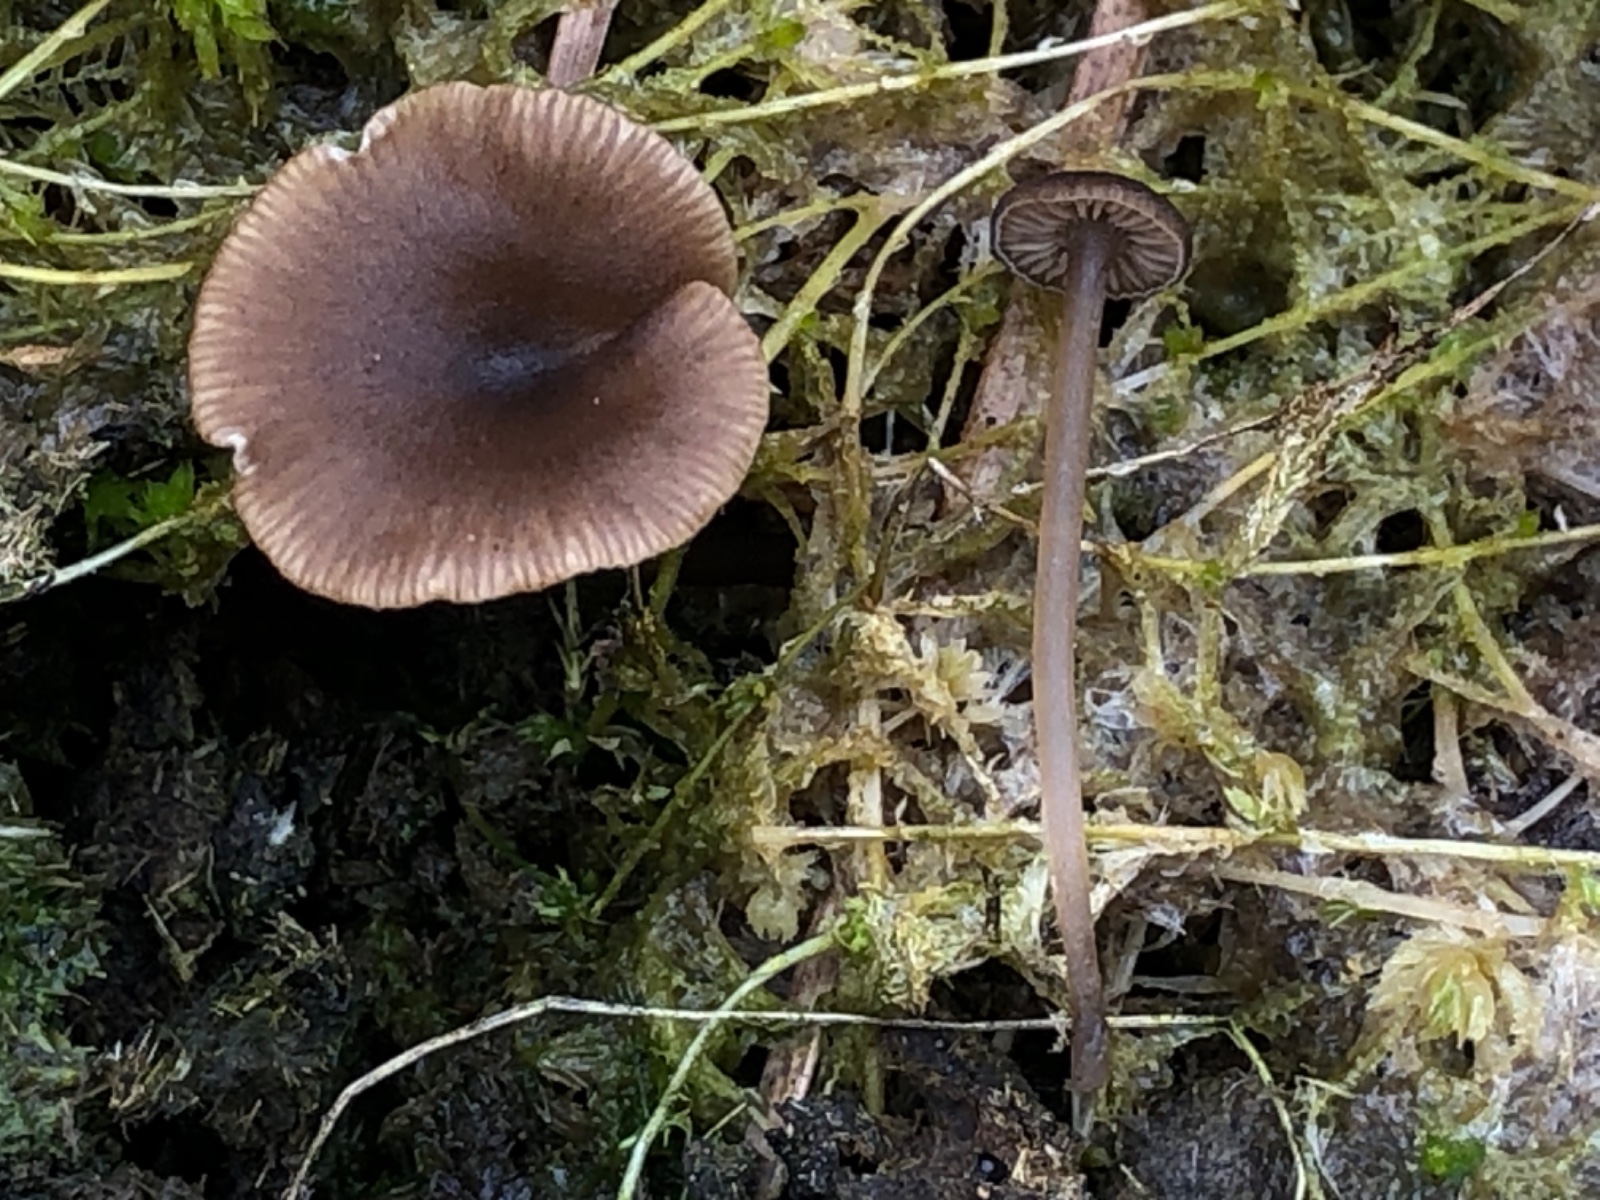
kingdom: Fungi
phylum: Basidiomycota
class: Agaricomycetes
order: Agaricales
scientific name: Agaricales
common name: champignonordenen
